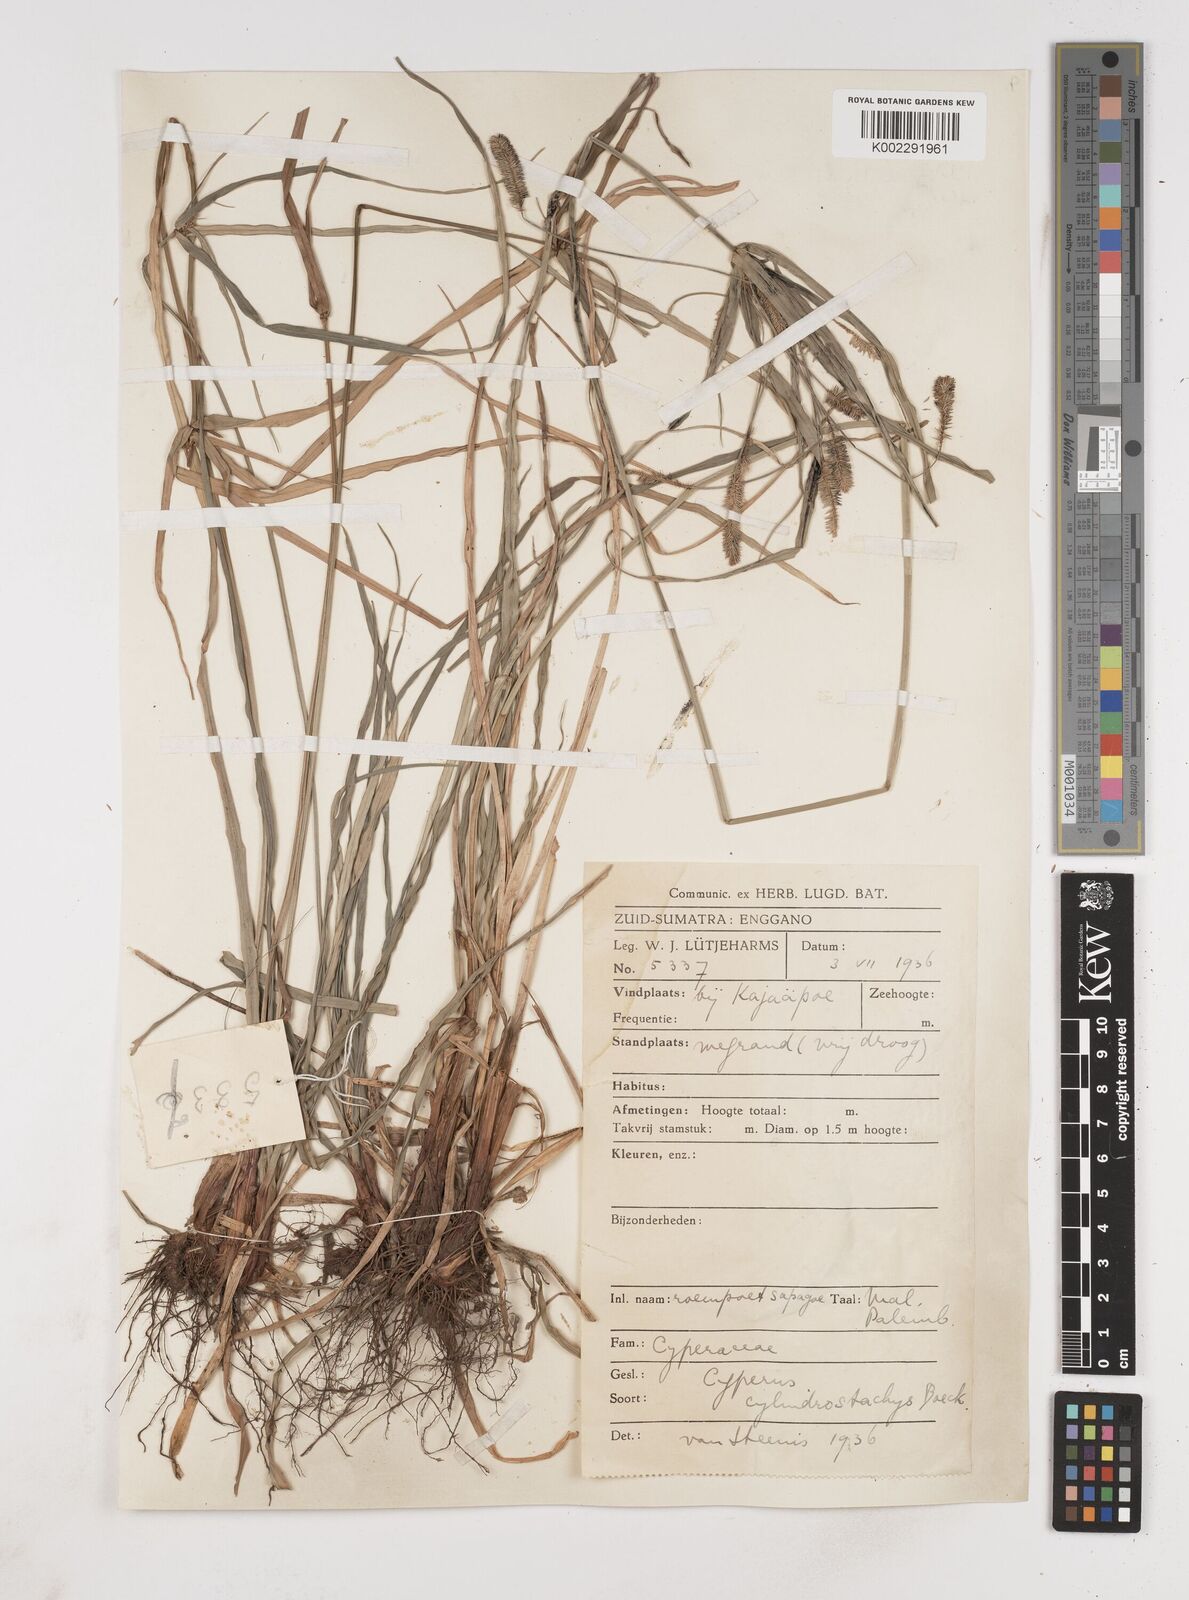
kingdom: Plantae
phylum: Tracheophyta
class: Liliopsida
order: Poales
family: Cyperaceae
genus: Cyperus
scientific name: Cyperus cyperoides
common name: Pacific island flat sedge
